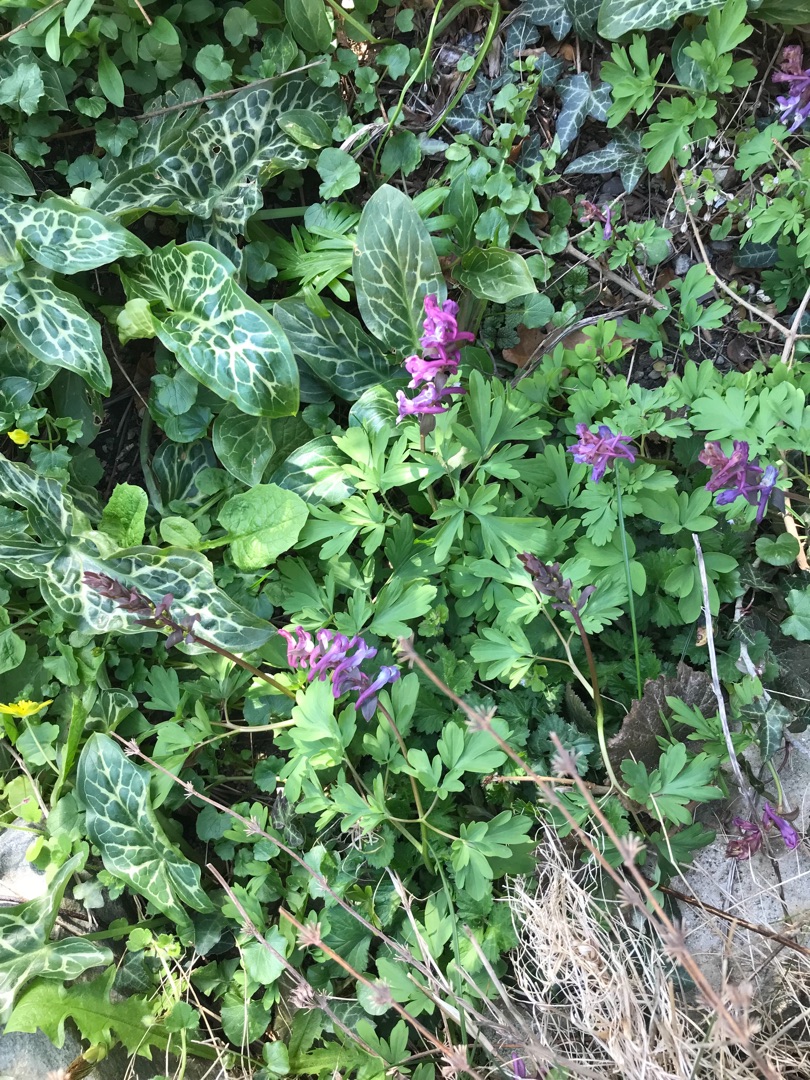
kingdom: Plantae
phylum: Tracheophyta
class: Magnoliopsida
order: Ranunculales
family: Papaveraceae
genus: Corydalis
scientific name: Corydalis cava
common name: Hulrodet lærkespore
